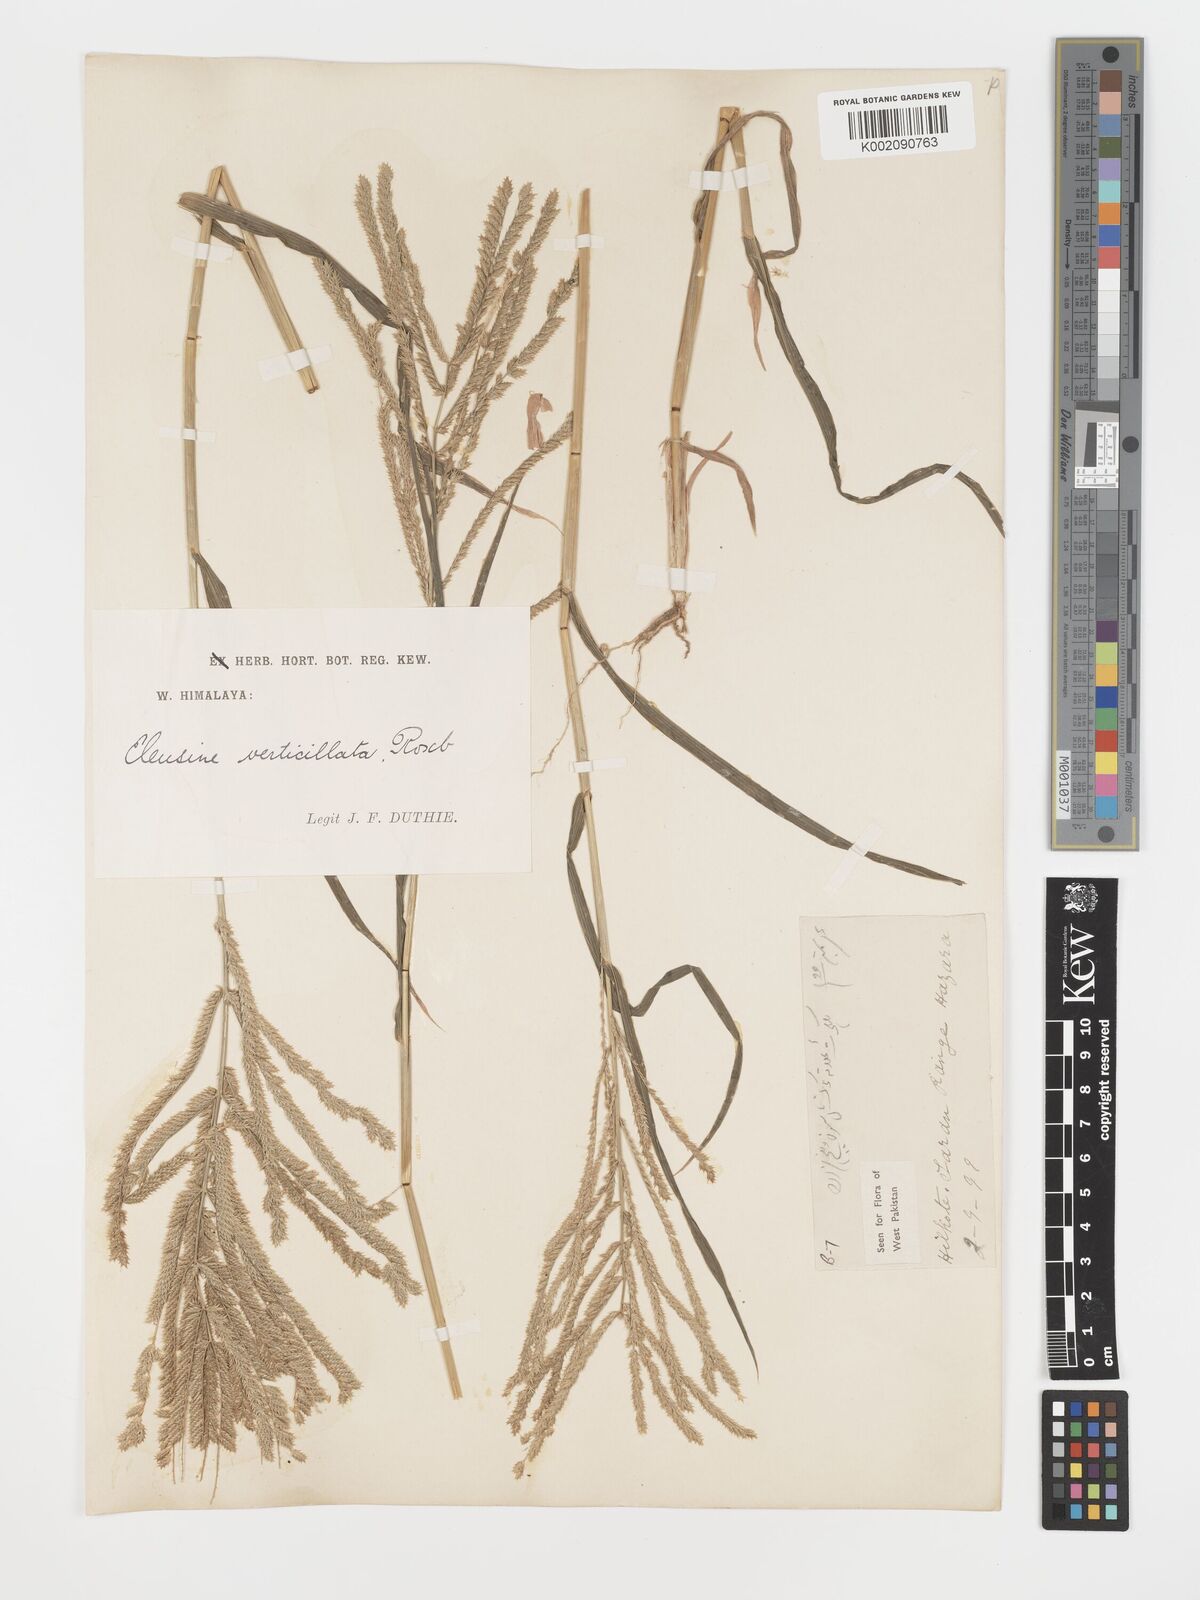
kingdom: Plantae
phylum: Tracheophyta
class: Liliopsida
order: Poales
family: Poaceae
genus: Acrachne
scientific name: Acrachne racemosa
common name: Goosegrass
